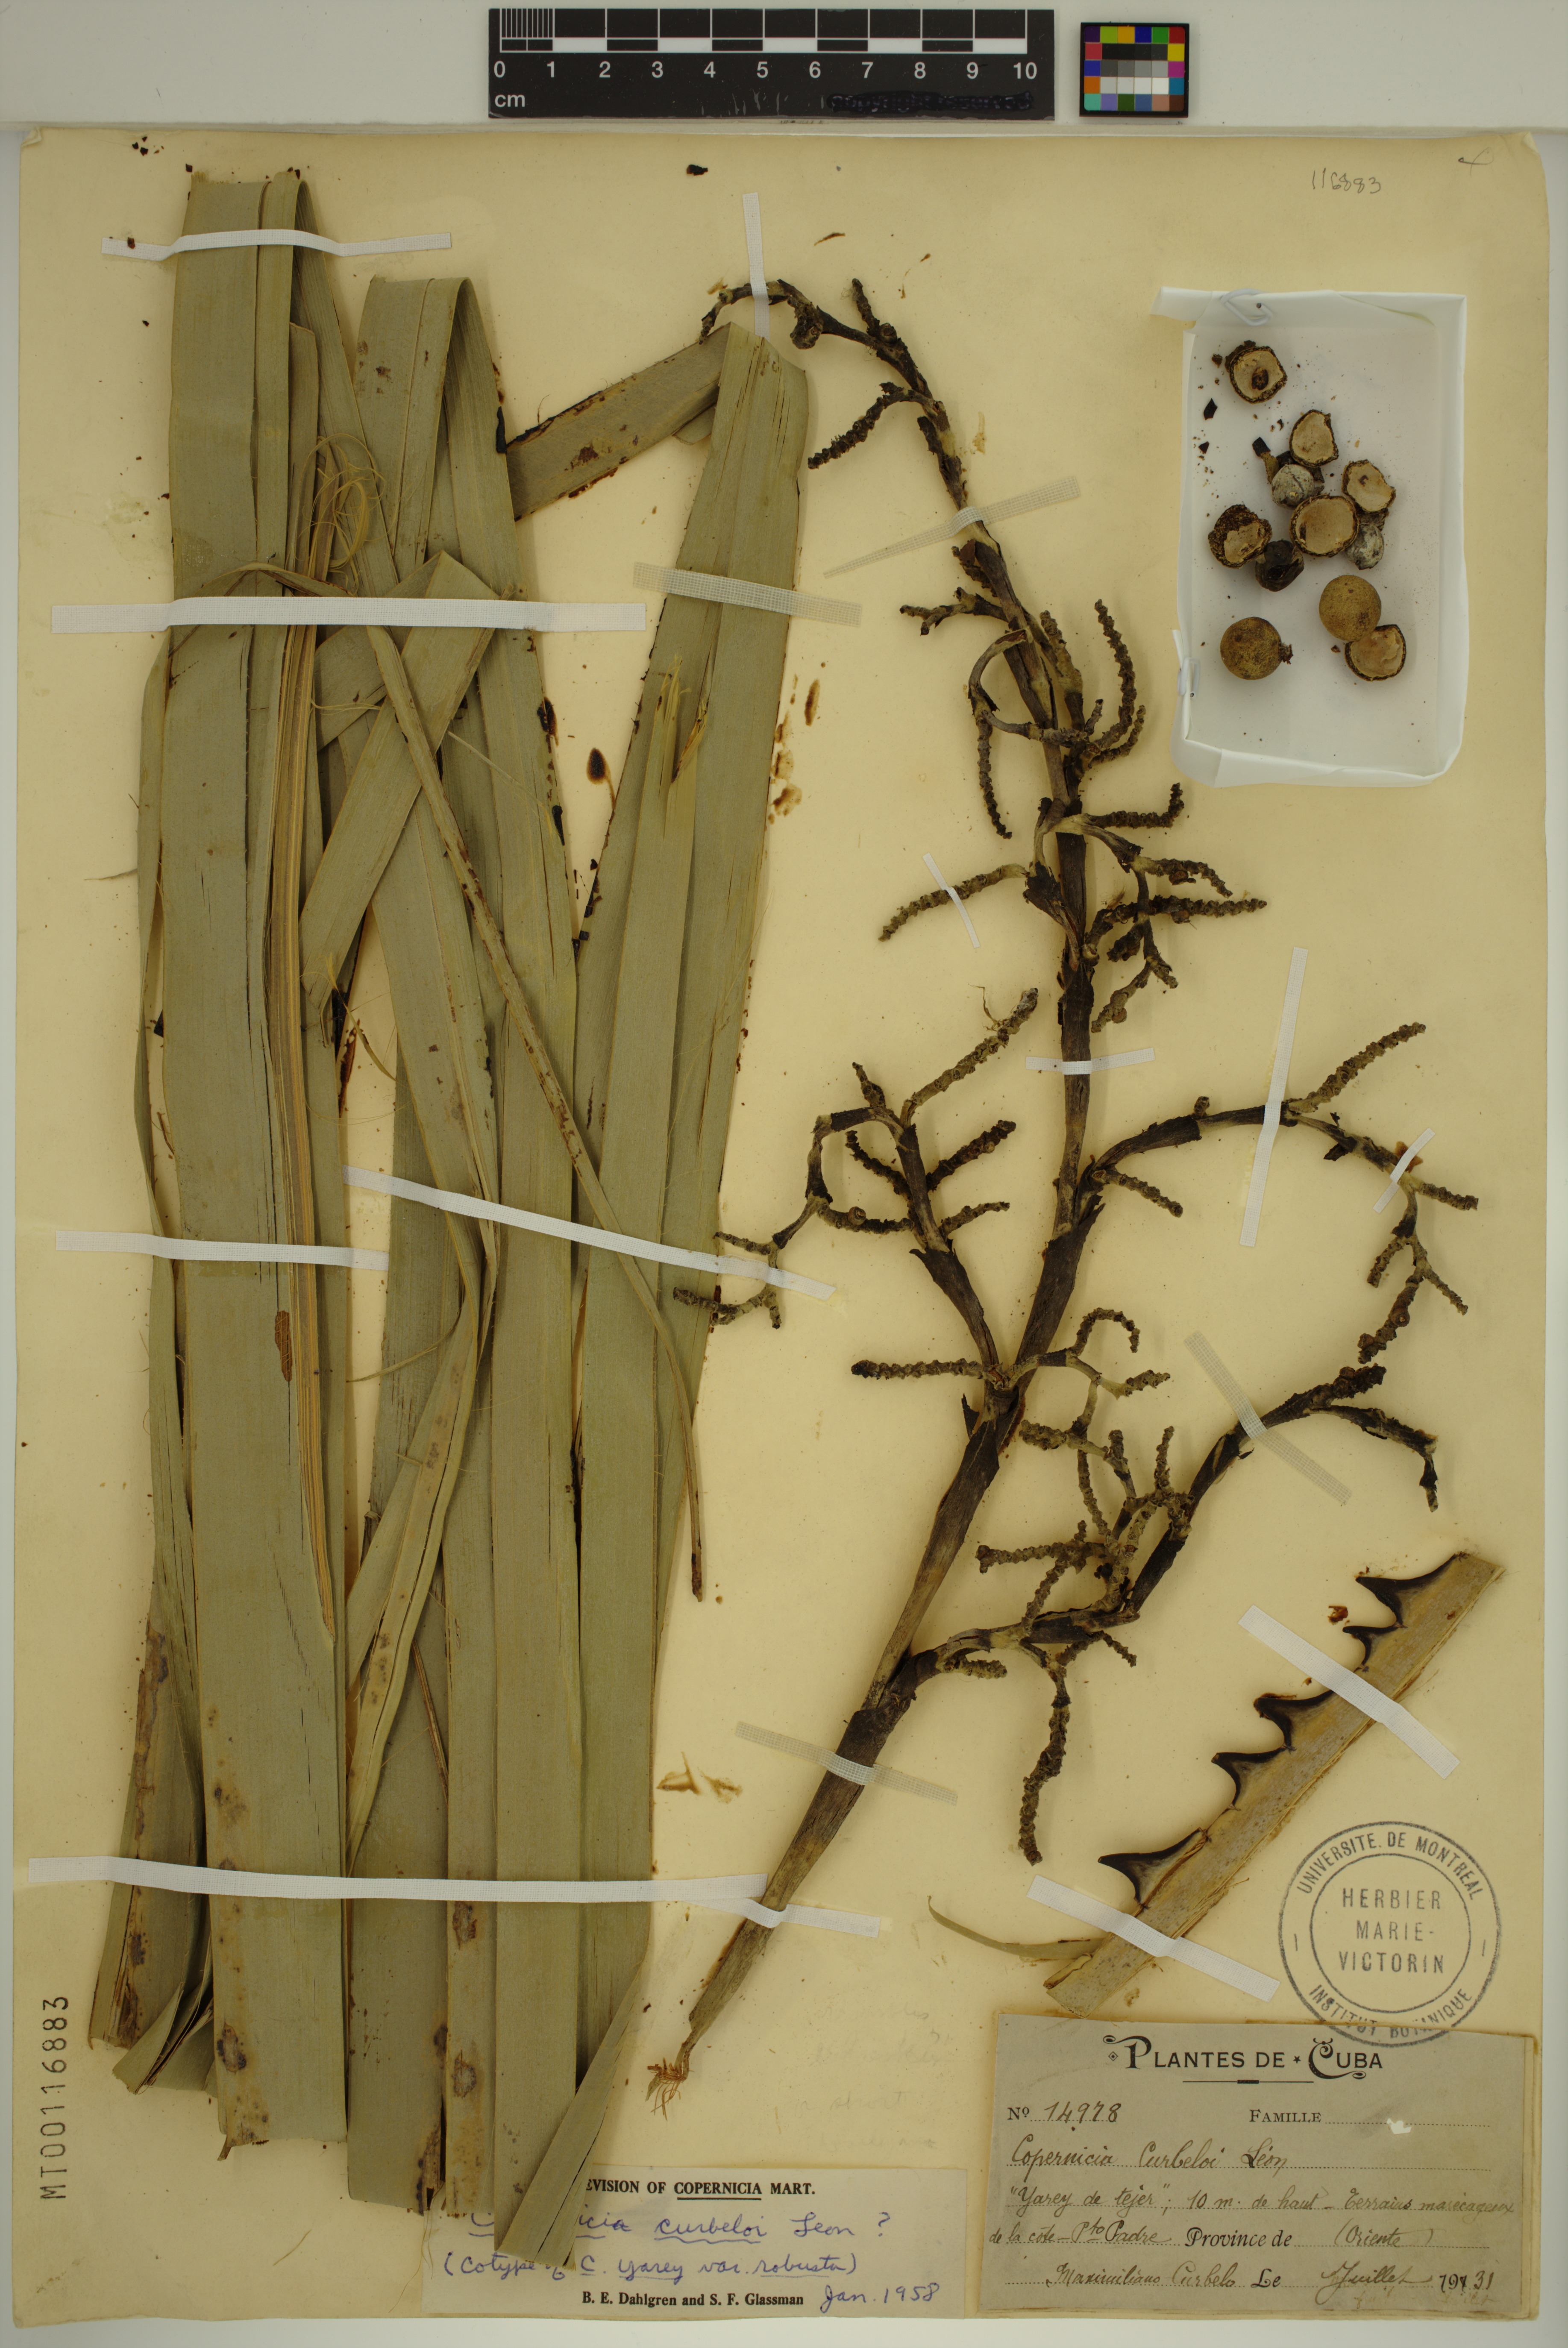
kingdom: Plantae
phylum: Tracheophyta
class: Liliopsida
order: Arecales
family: Arecaceae
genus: Copernicia
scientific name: Copernicia curbeloi
